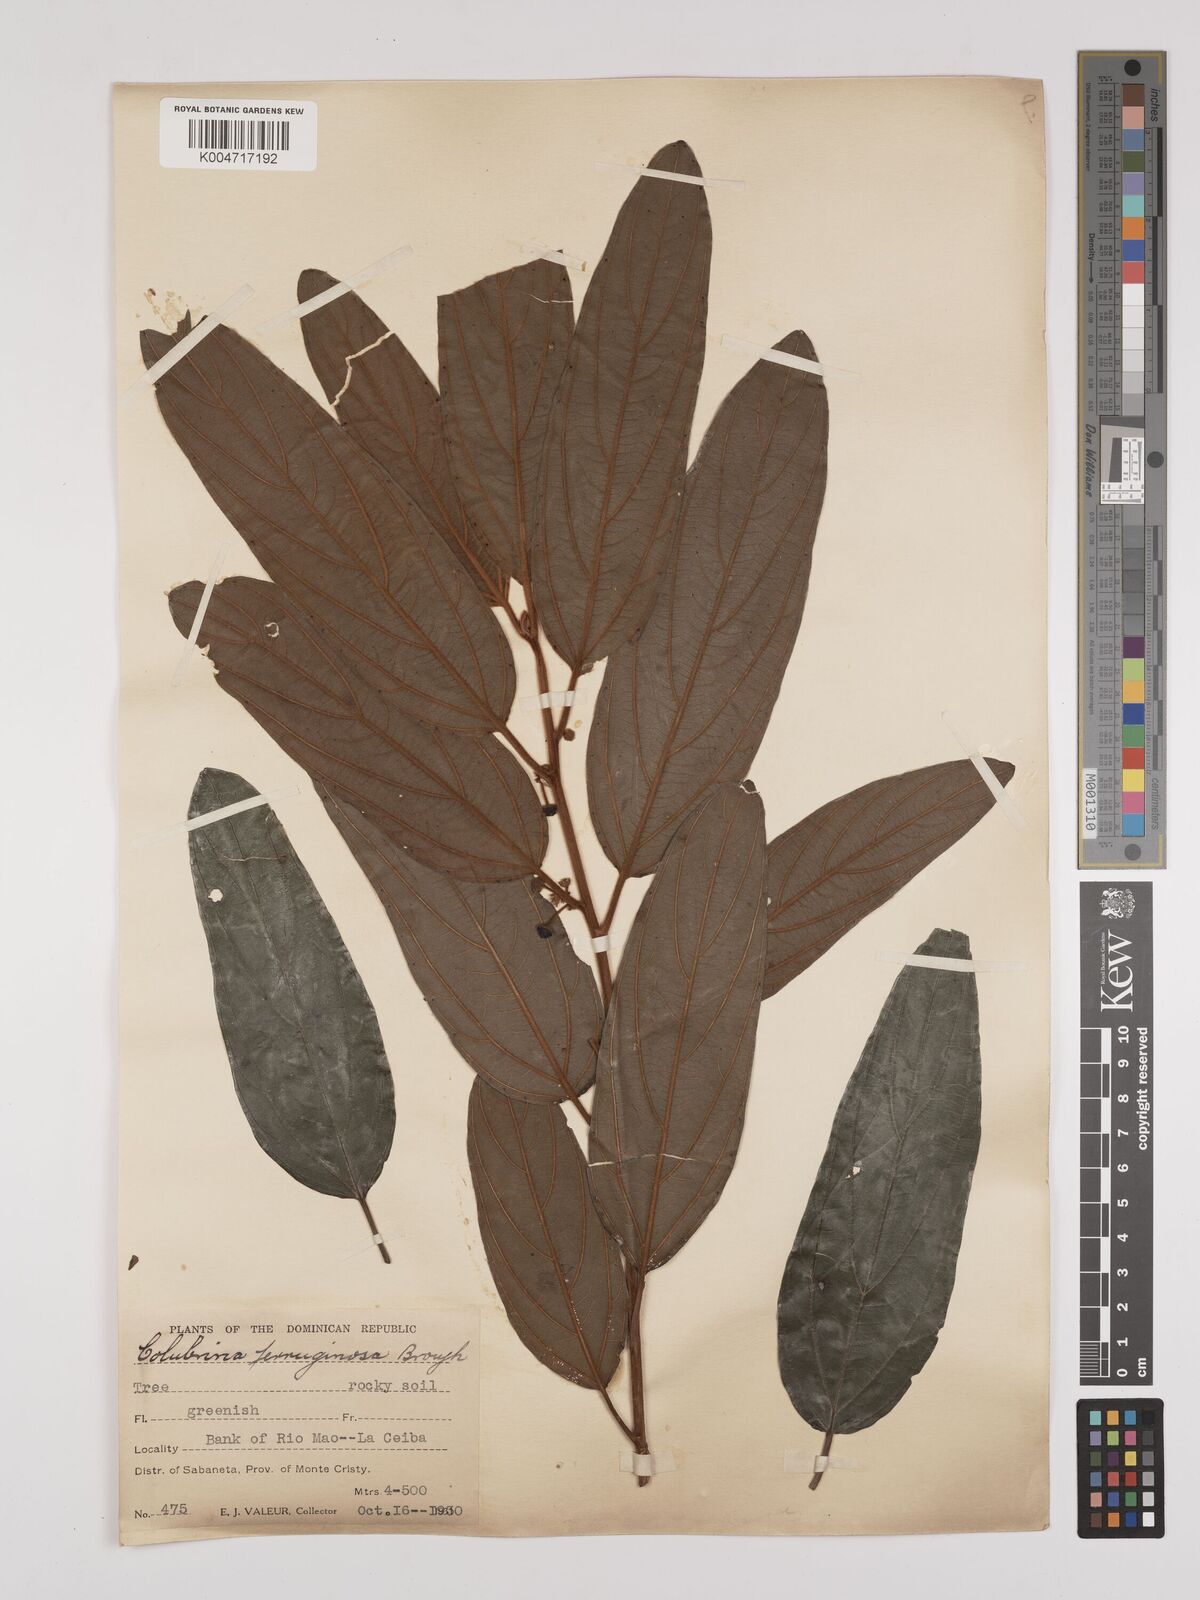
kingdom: Plantae
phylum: Tracheophyta
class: Magnoliopsida
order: Rosales
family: Rhamnaceae
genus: Colubrina
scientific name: Colubrina arborescens
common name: Wild coffee
